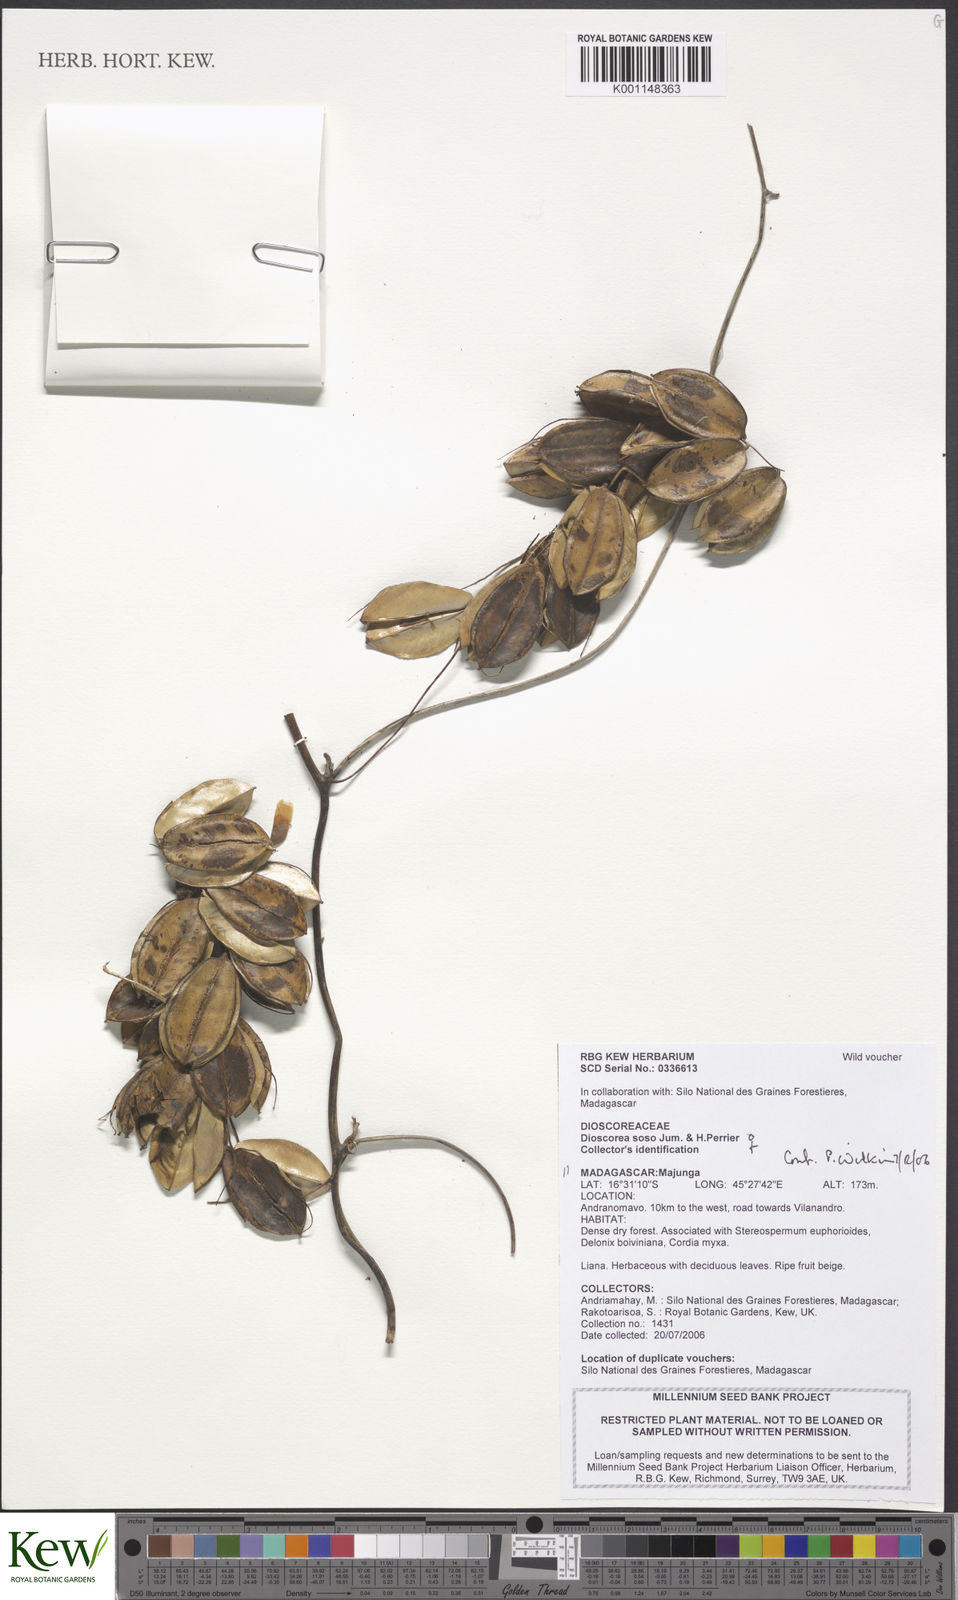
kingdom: Plantae
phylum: Tracheophyta
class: Liliopsida
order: Dioscoreales
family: Dioscoreaceae
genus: Dioscorea
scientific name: Dioscorea soso
